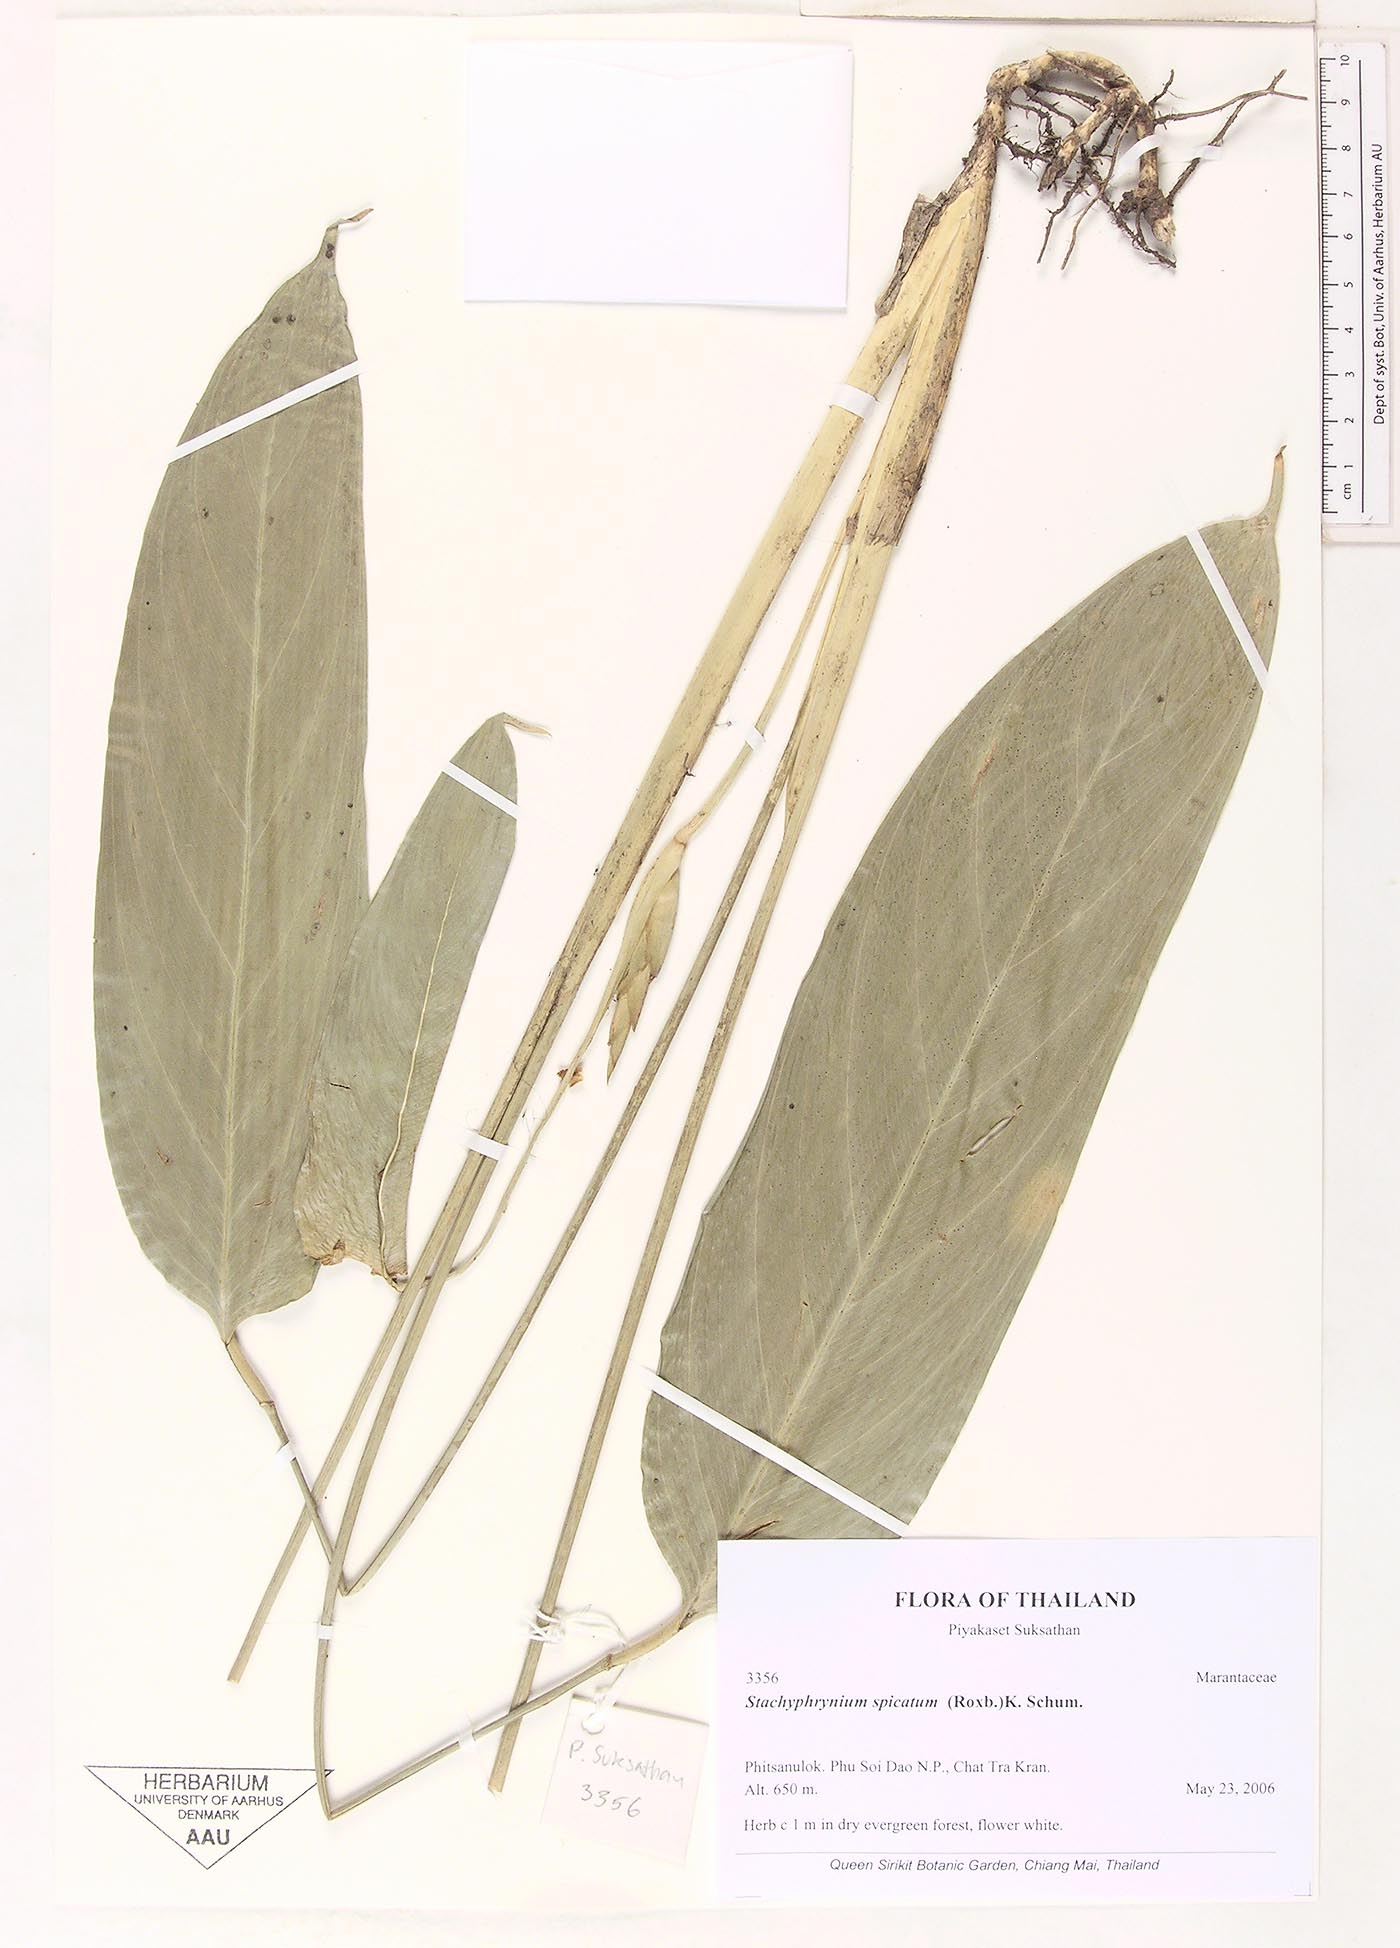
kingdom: Plantae
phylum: Tracheophyta
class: Liliopsida
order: Zingiberales
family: Marantaceae
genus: Stachyphrynium
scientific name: Stachyphrynium spicatum
